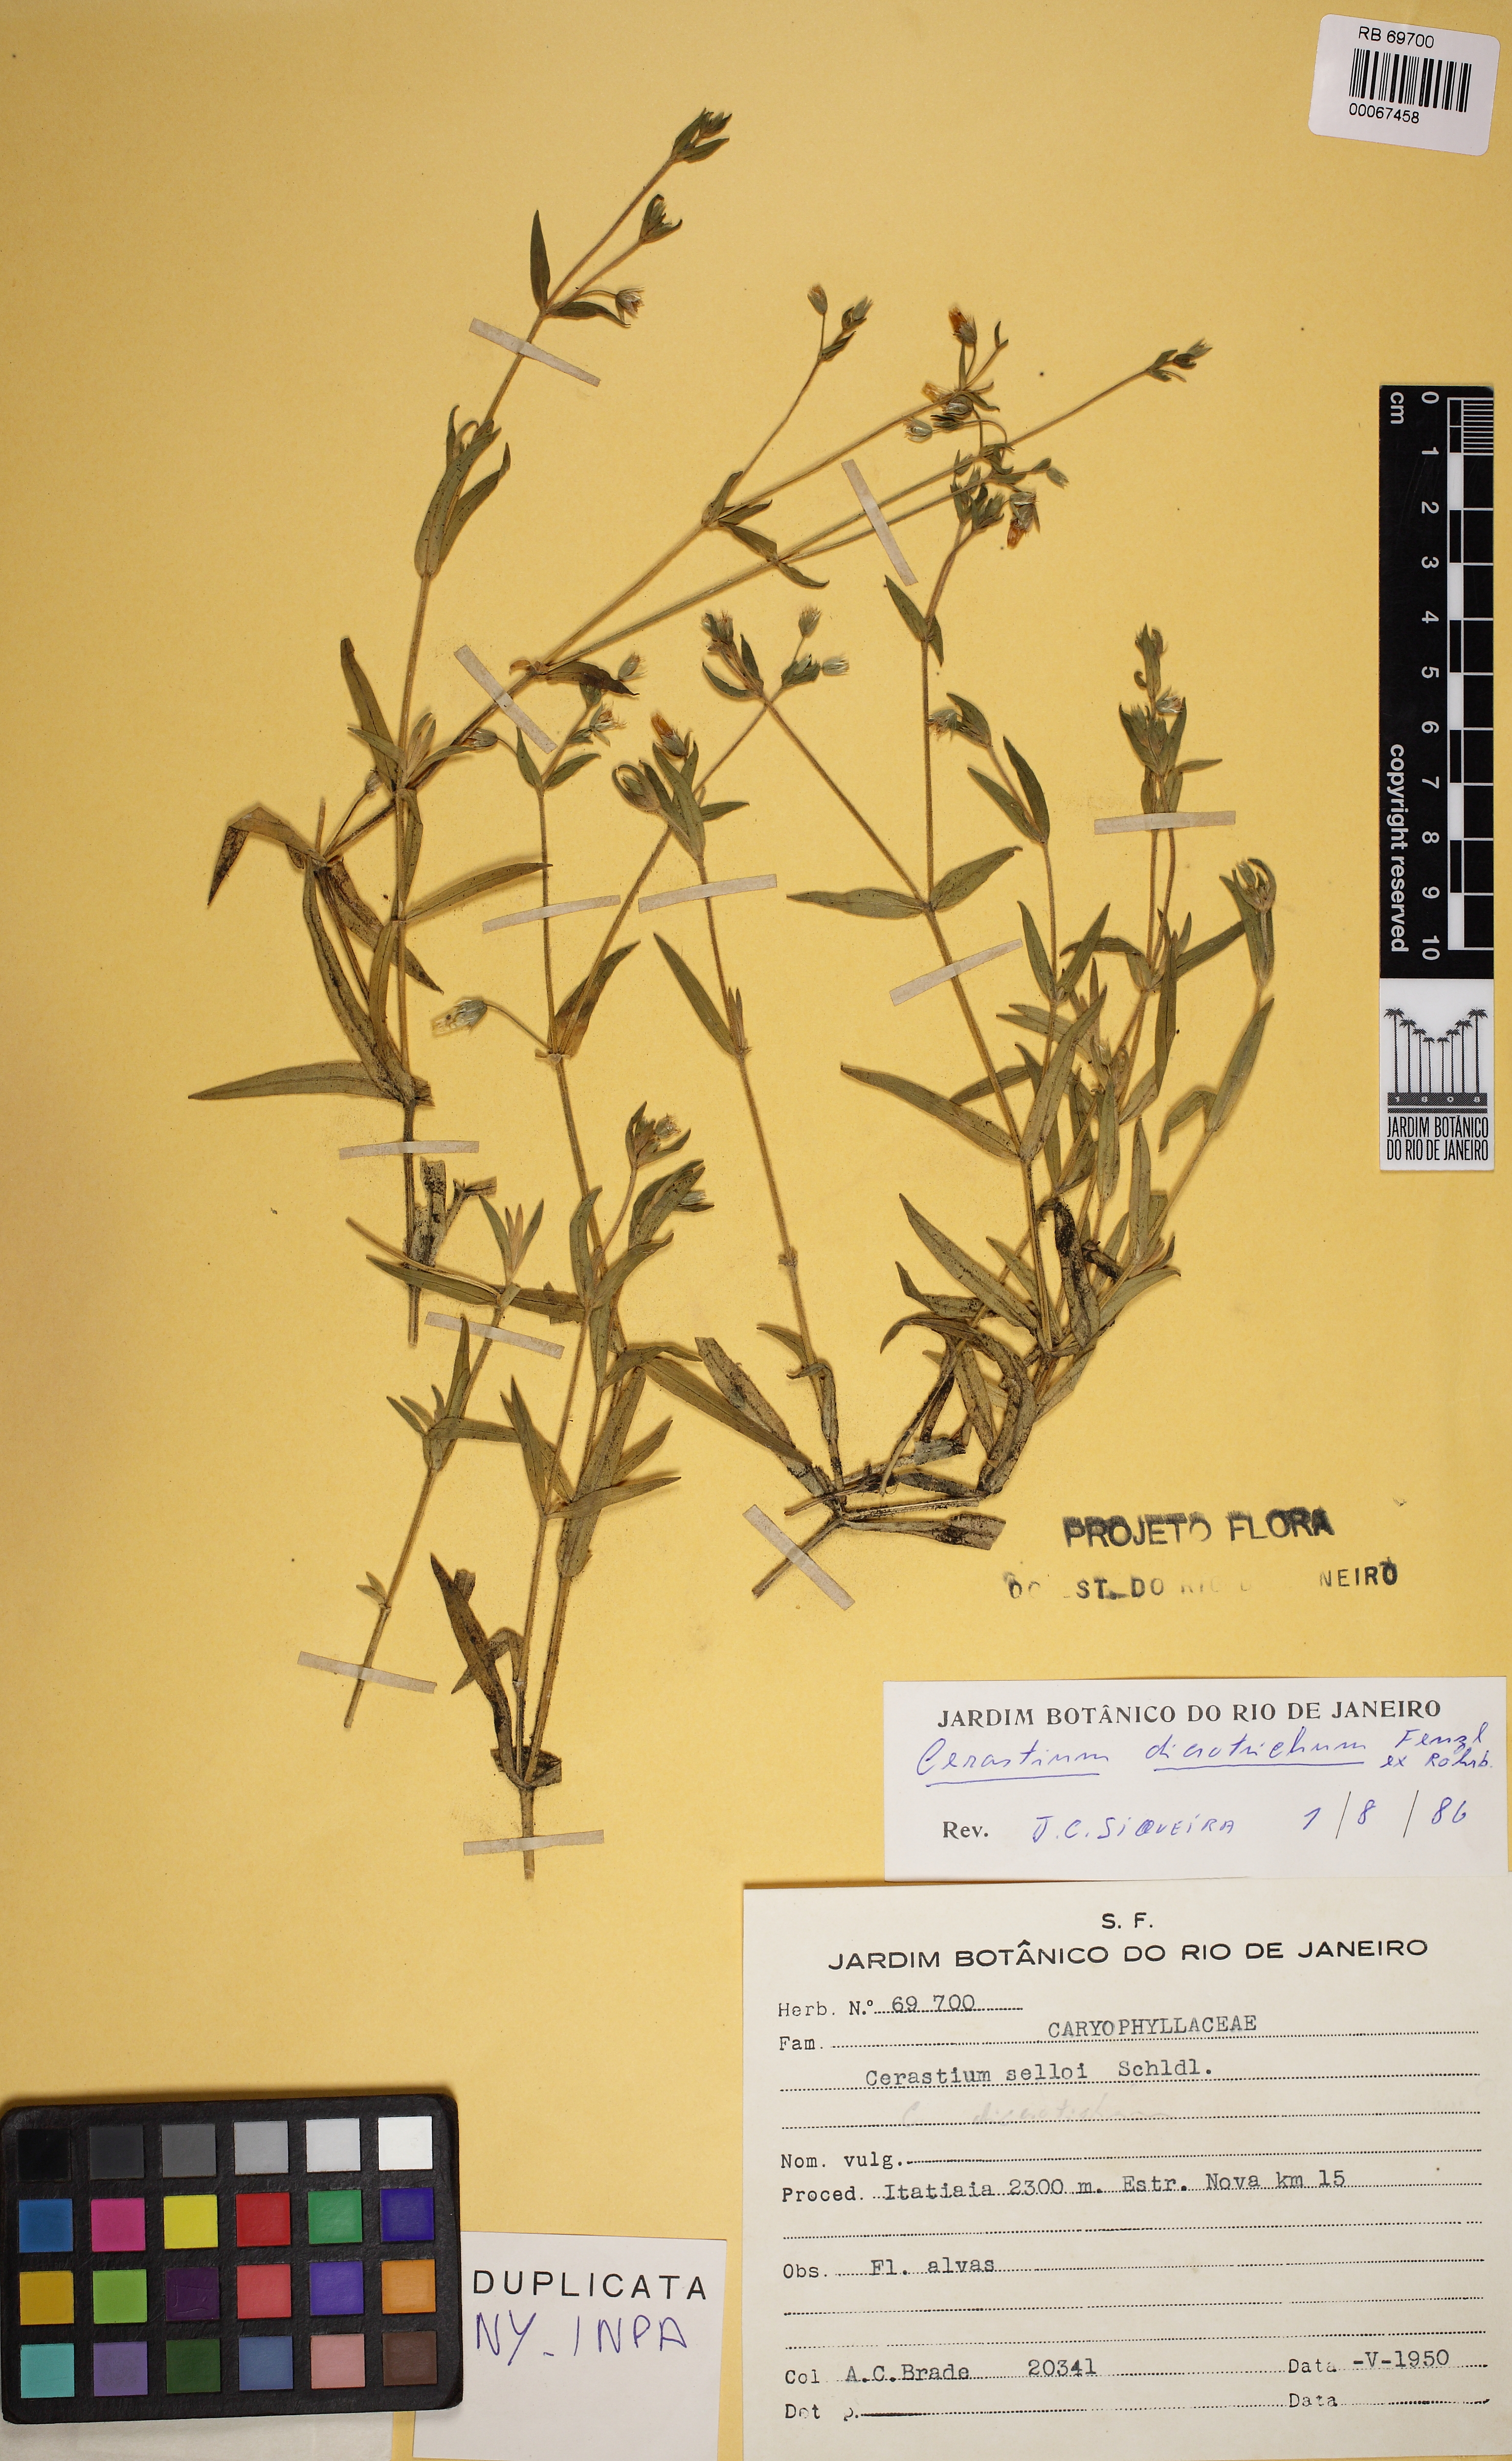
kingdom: Plantae
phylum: Tracheophyta
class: Magnoliopsida
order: Caryophyllales
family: Caryophyllaceae
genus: Cerastium
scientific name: Cerastium dicrotrichum
